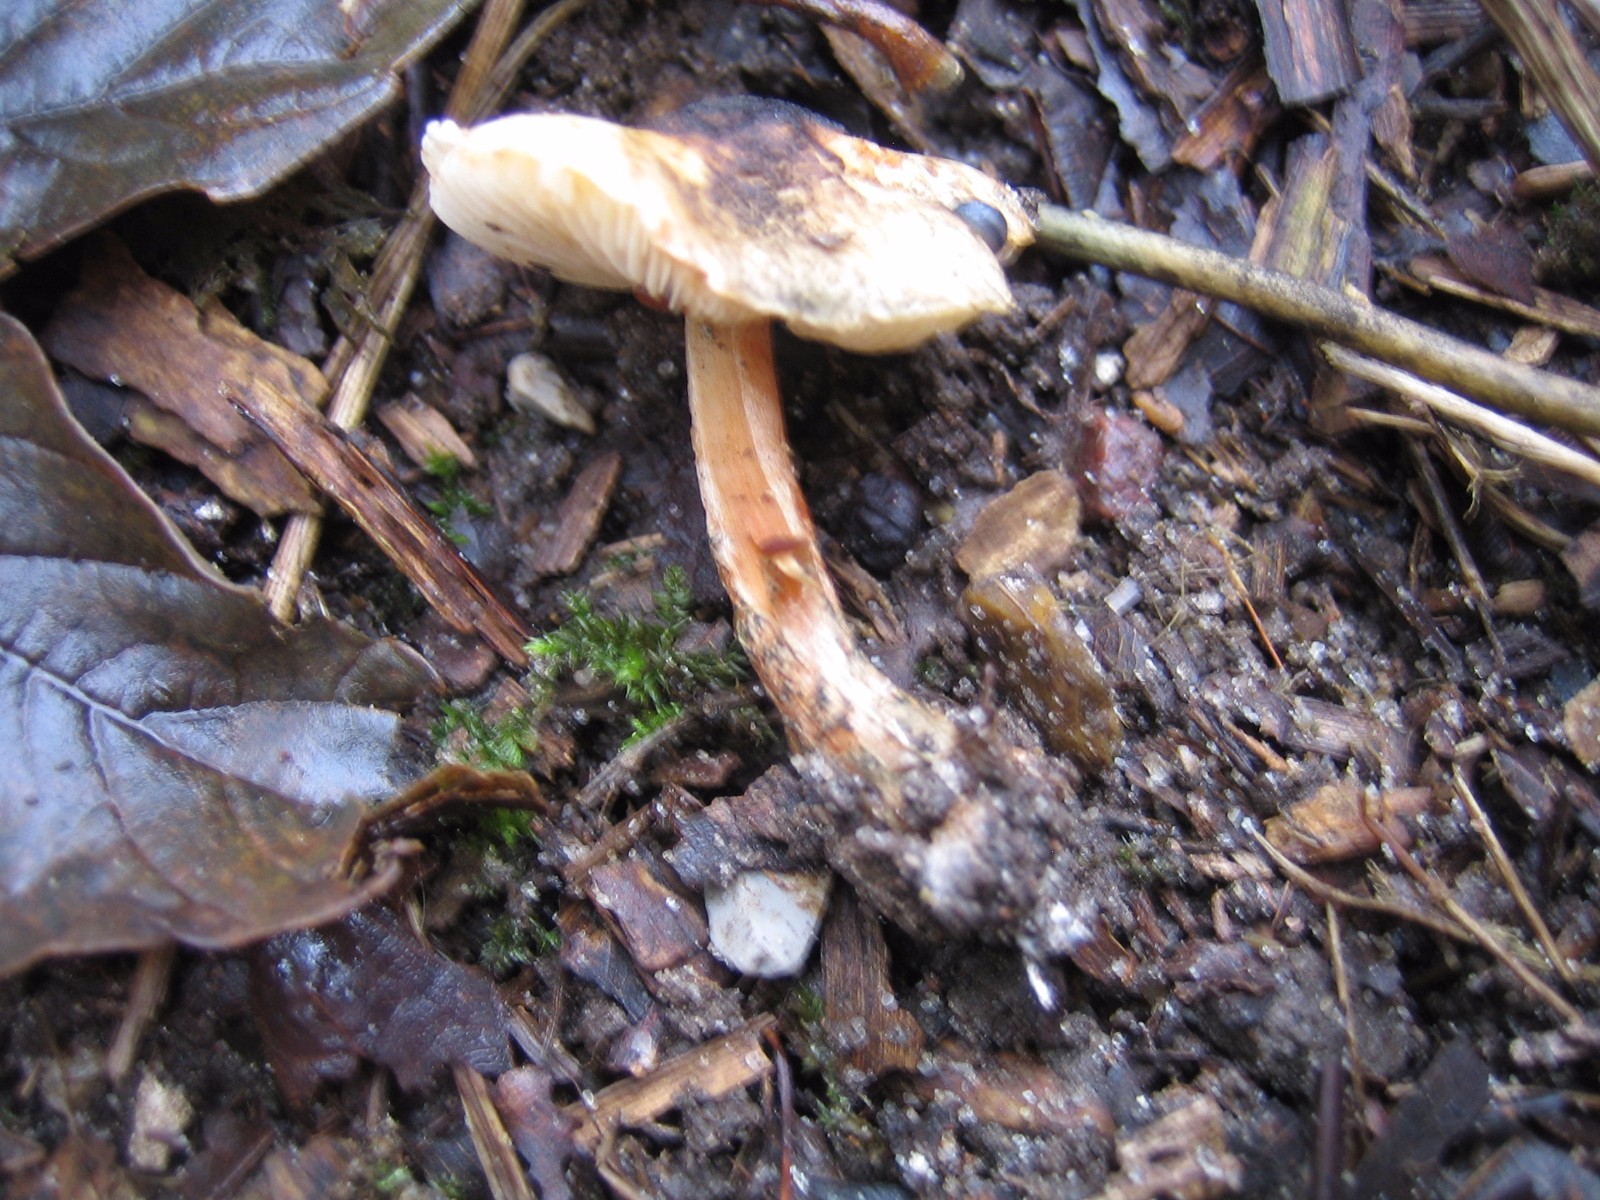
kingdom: Fungi
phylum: Basidiomycota
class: Agaricomycetes
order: Agaricales
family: Agaricaceae
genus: Lepiota
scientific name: Lepiota grangei
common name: grønskællet parasolhat
